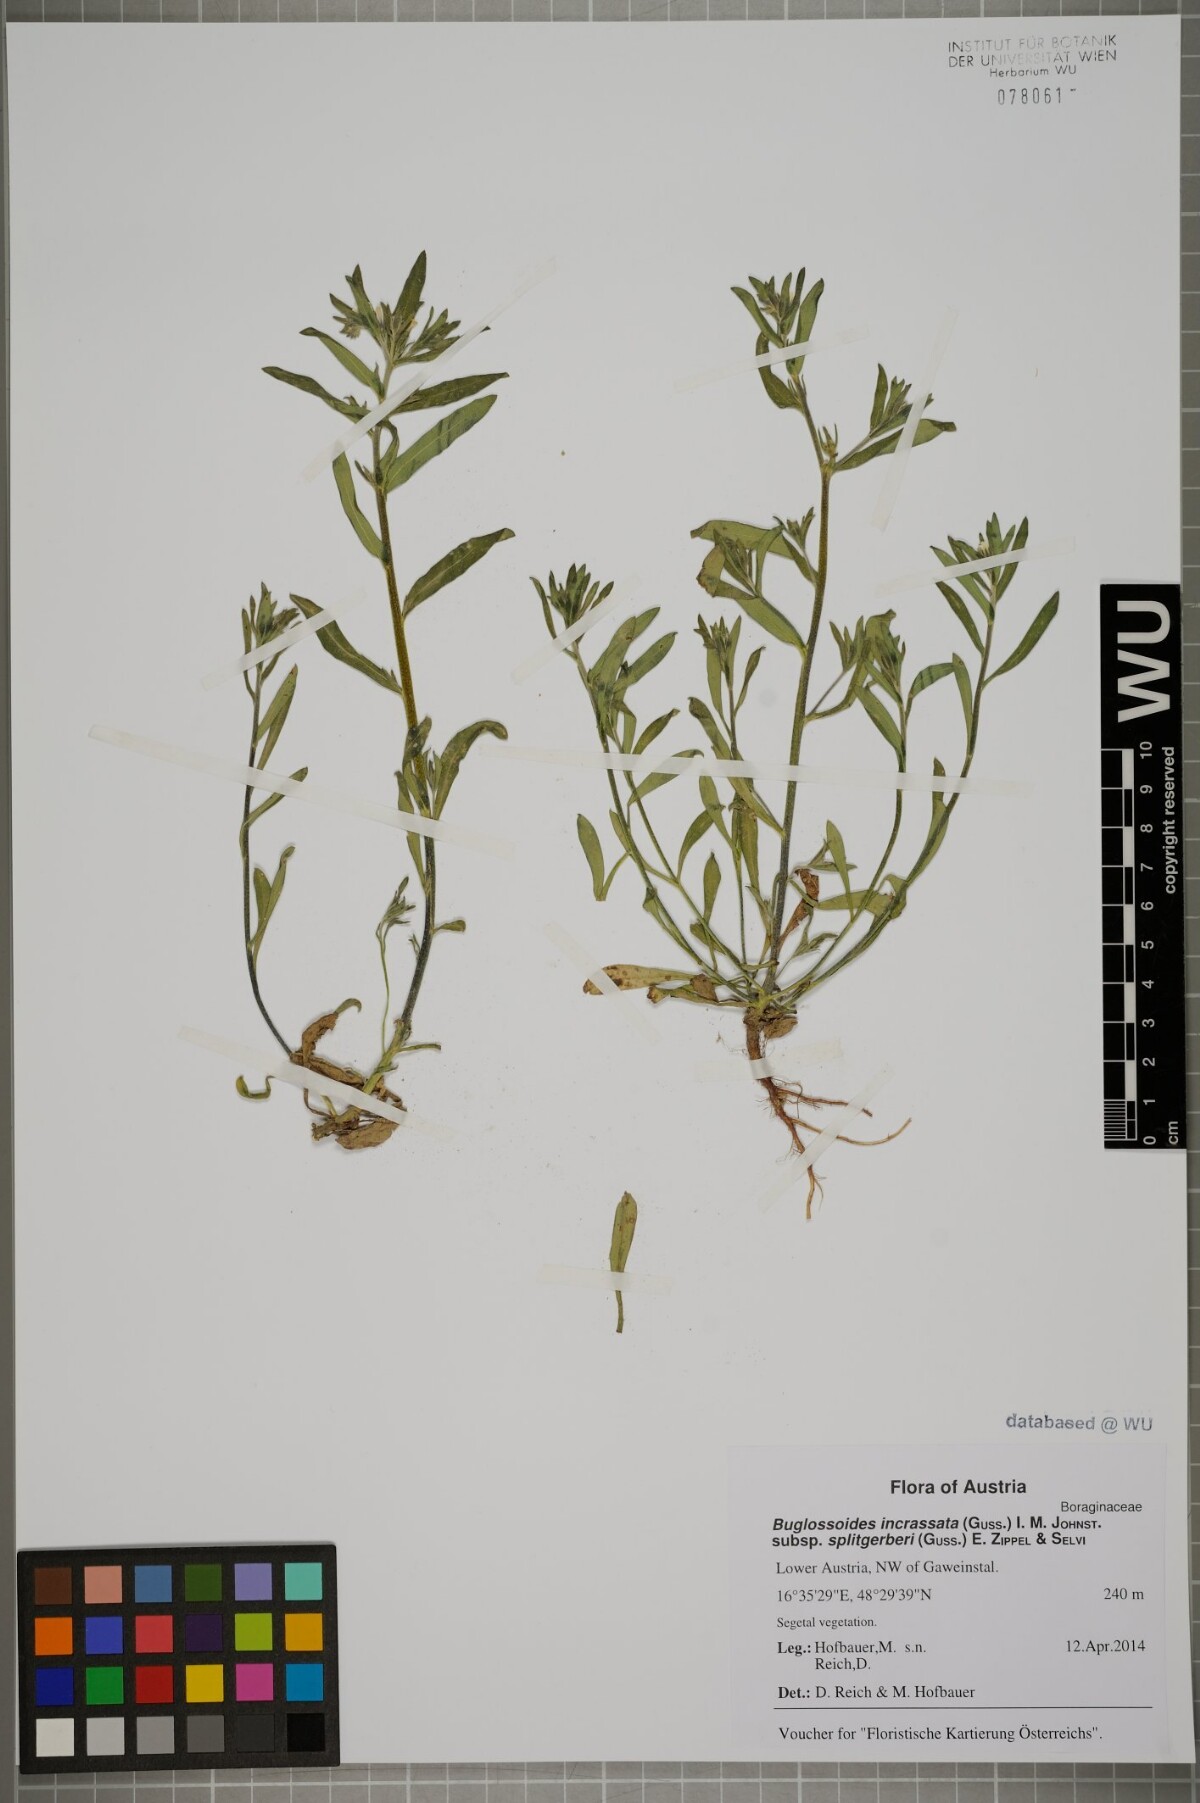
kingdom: Plantae
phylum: Tracheophyta
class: Magnoliopsida
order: Boraginales
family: Boraginaceae
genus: Buglossoides
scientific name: Buglossoides incrassata
